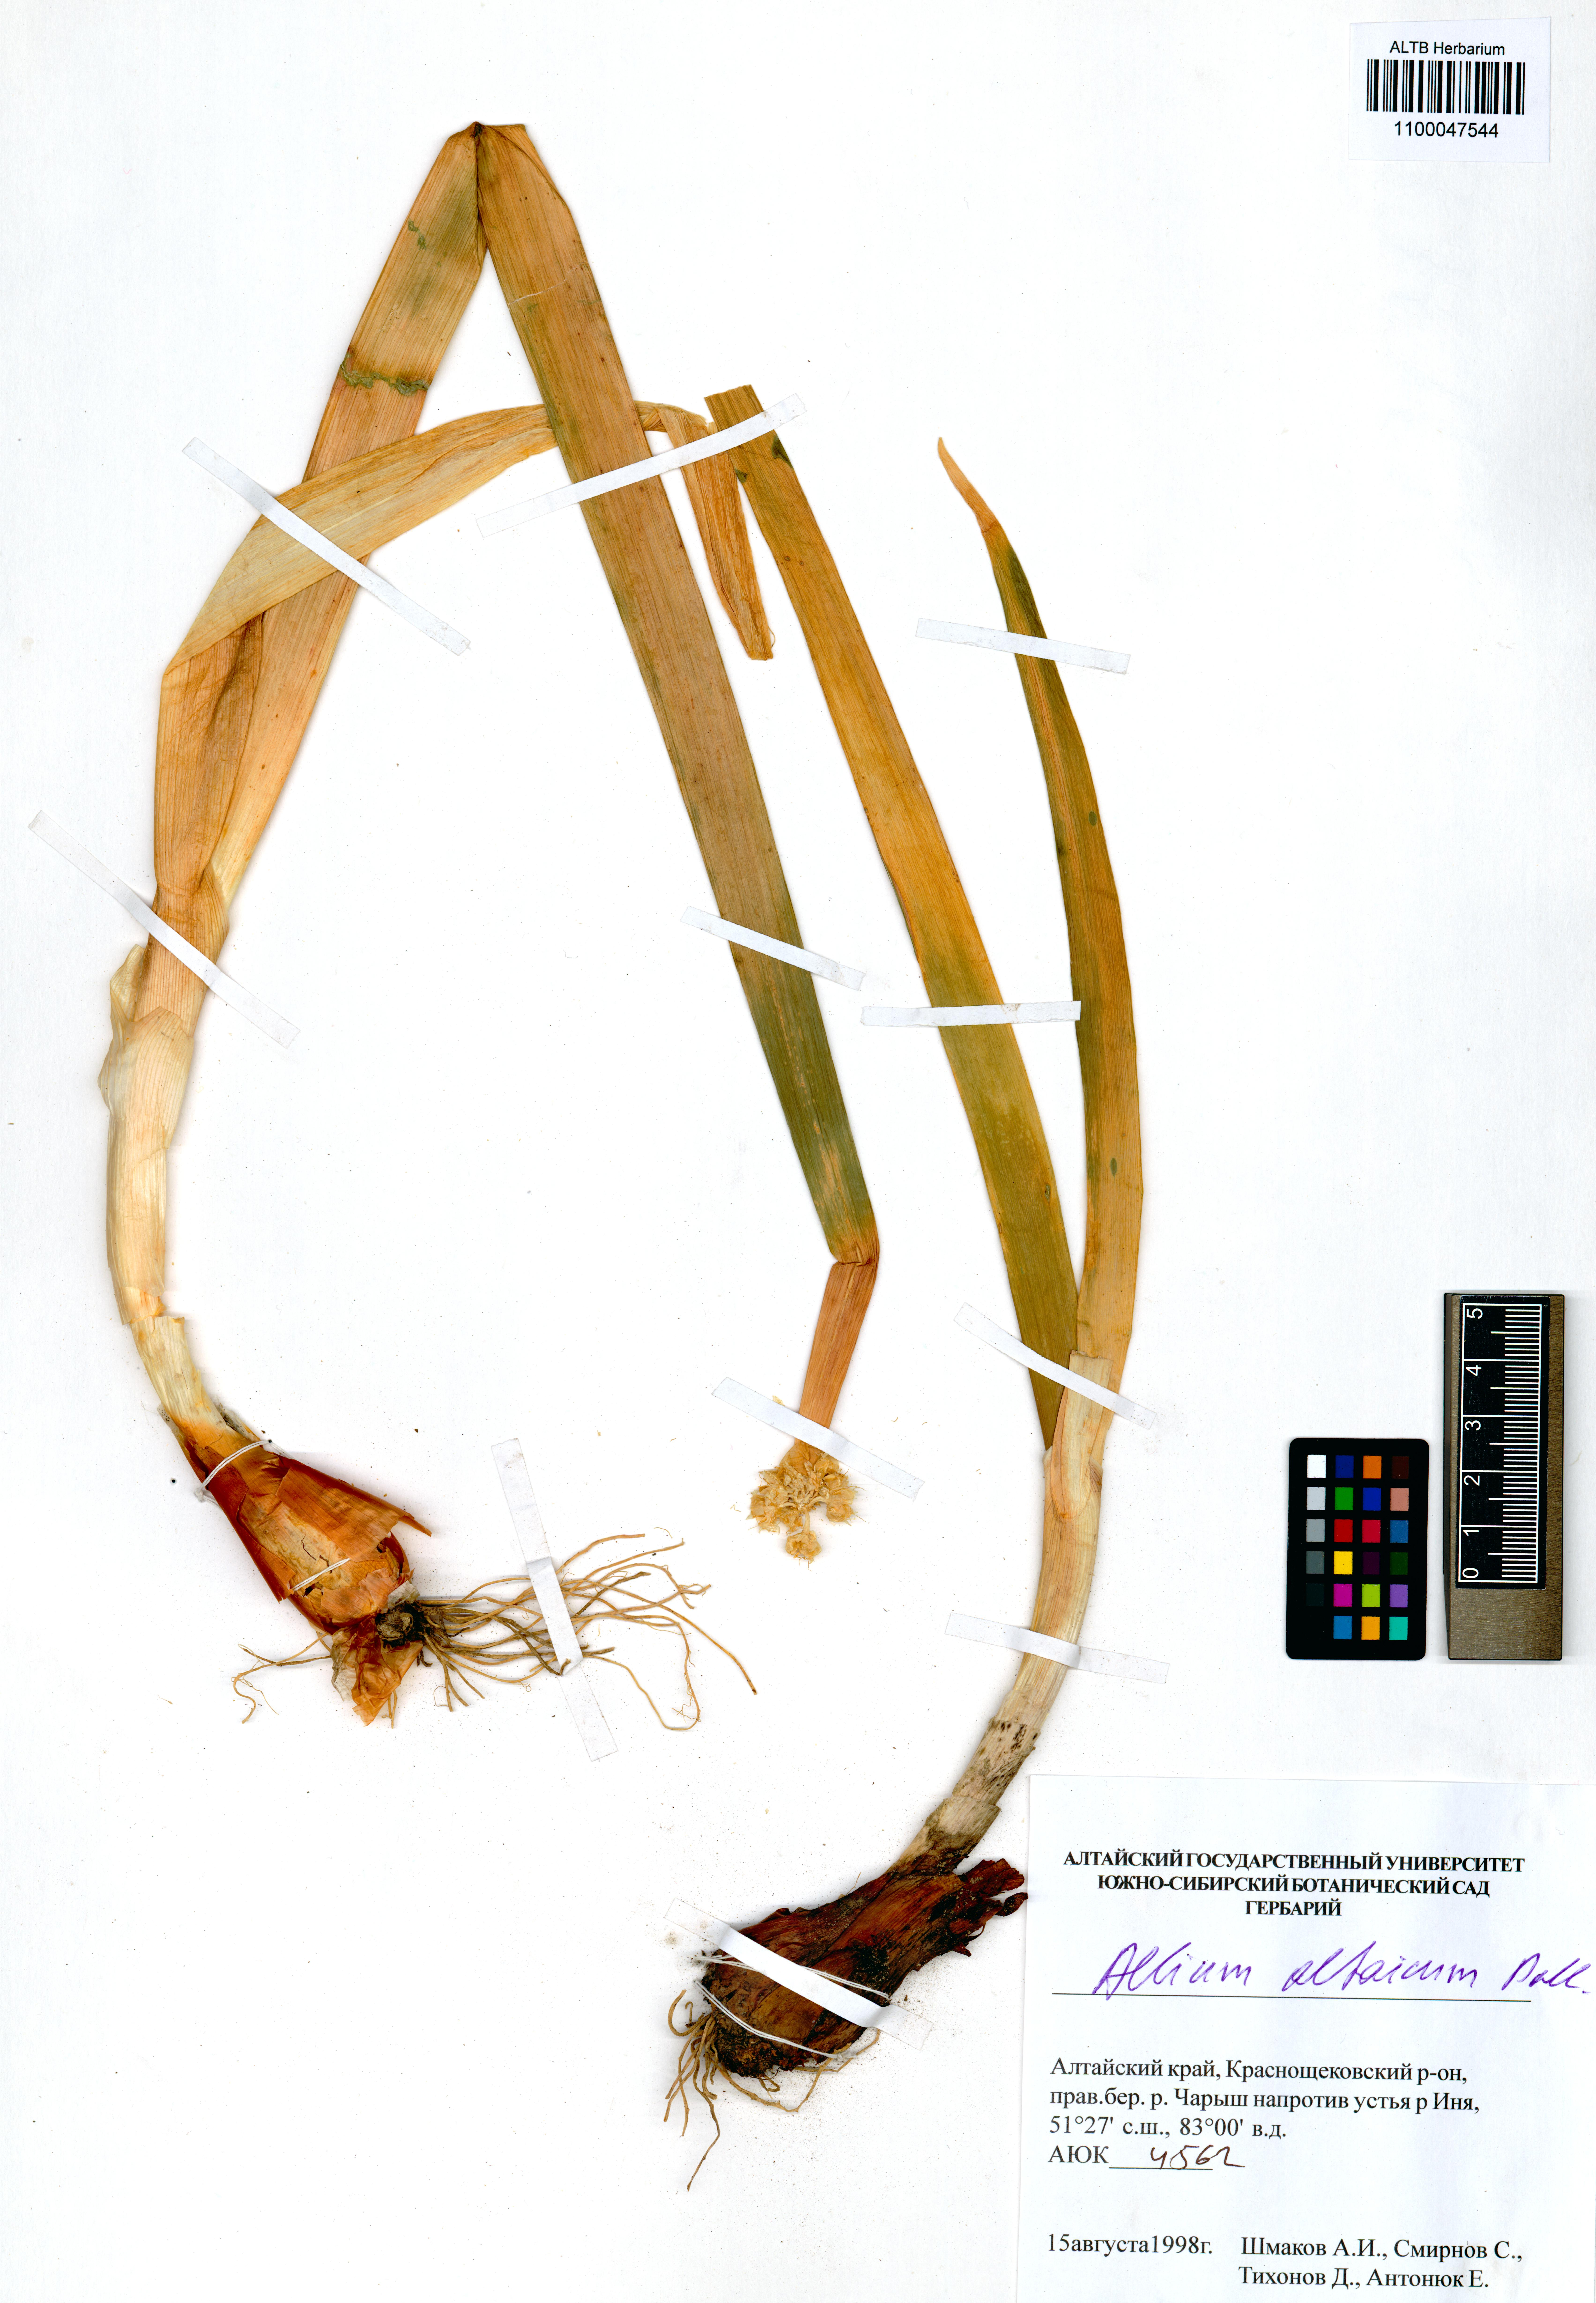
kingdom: Plantae
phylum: Tracheophyta
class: Liliopsida
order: Asparagales
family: Amaryllidaceae
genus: Allium
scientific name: Allium altaicum
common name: Altai onion
